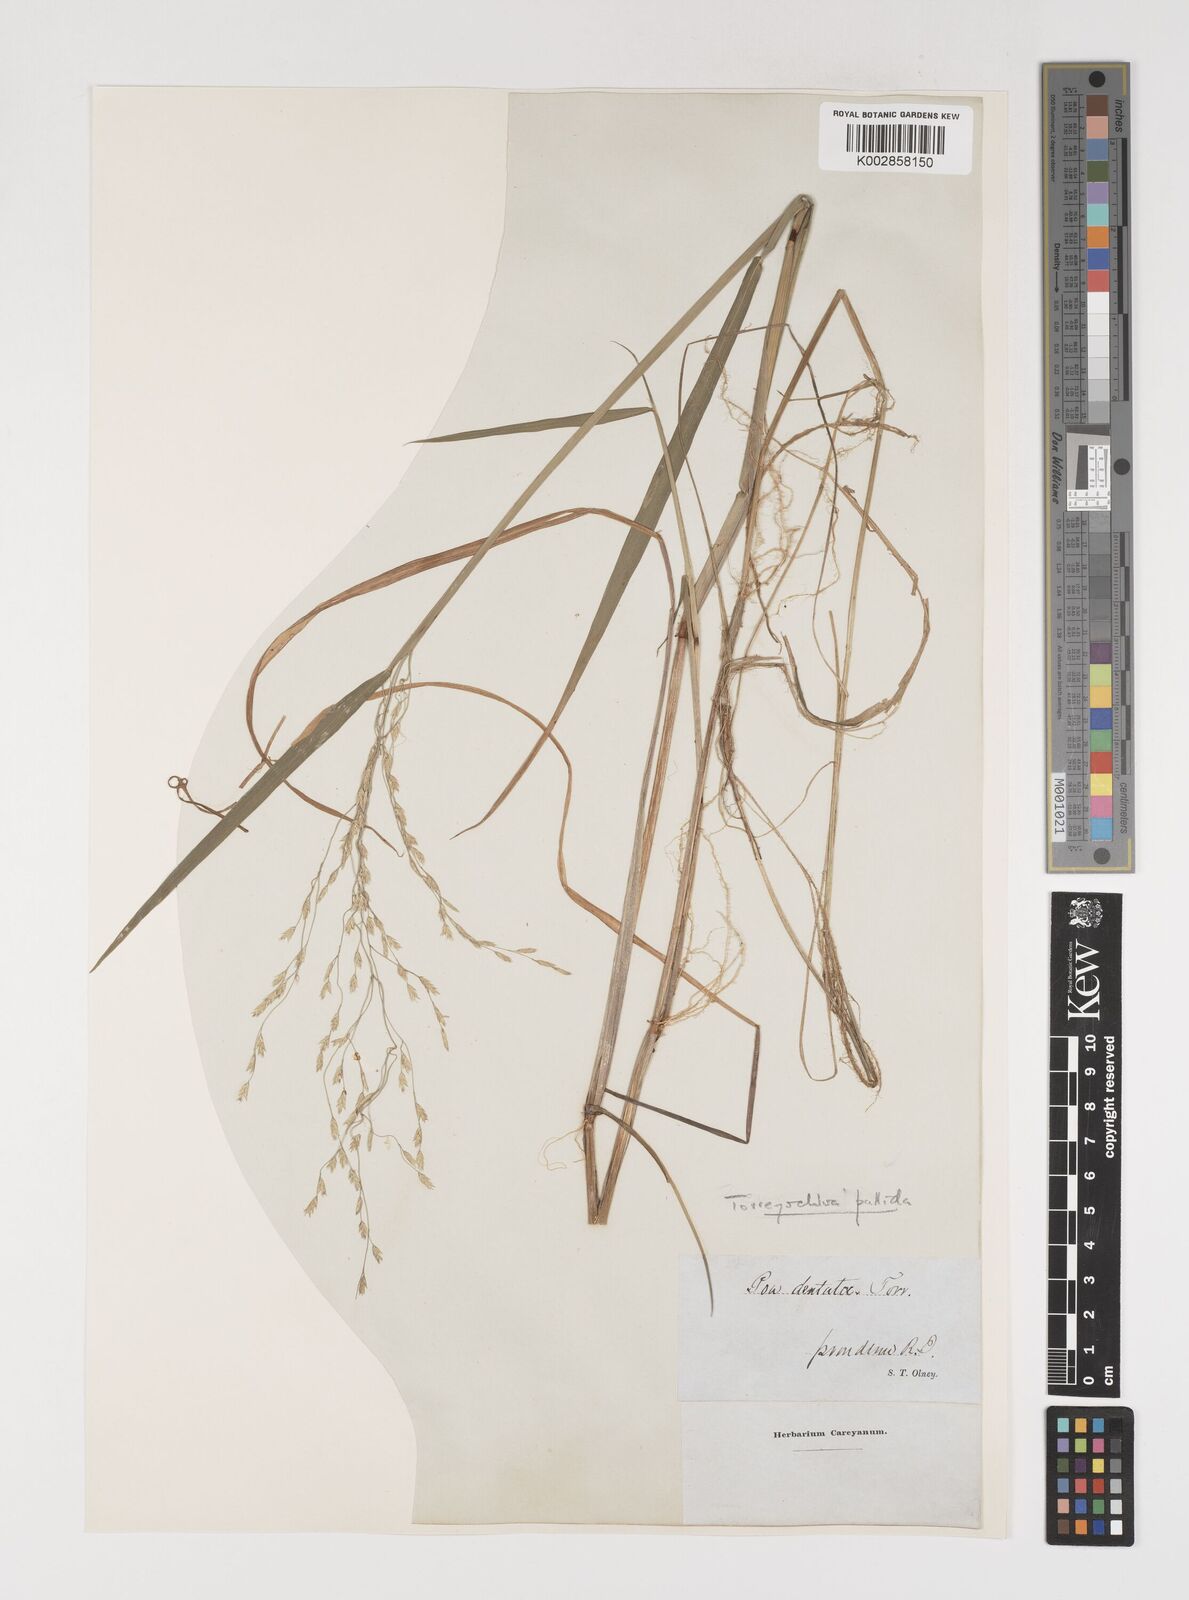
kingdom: Plantae
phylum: Tracheophyta
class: Liliopsida
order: Poales
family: Poaceae
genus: Torreyochloa
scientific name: Torreyochloa pallida
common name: Pale false mannagrass
